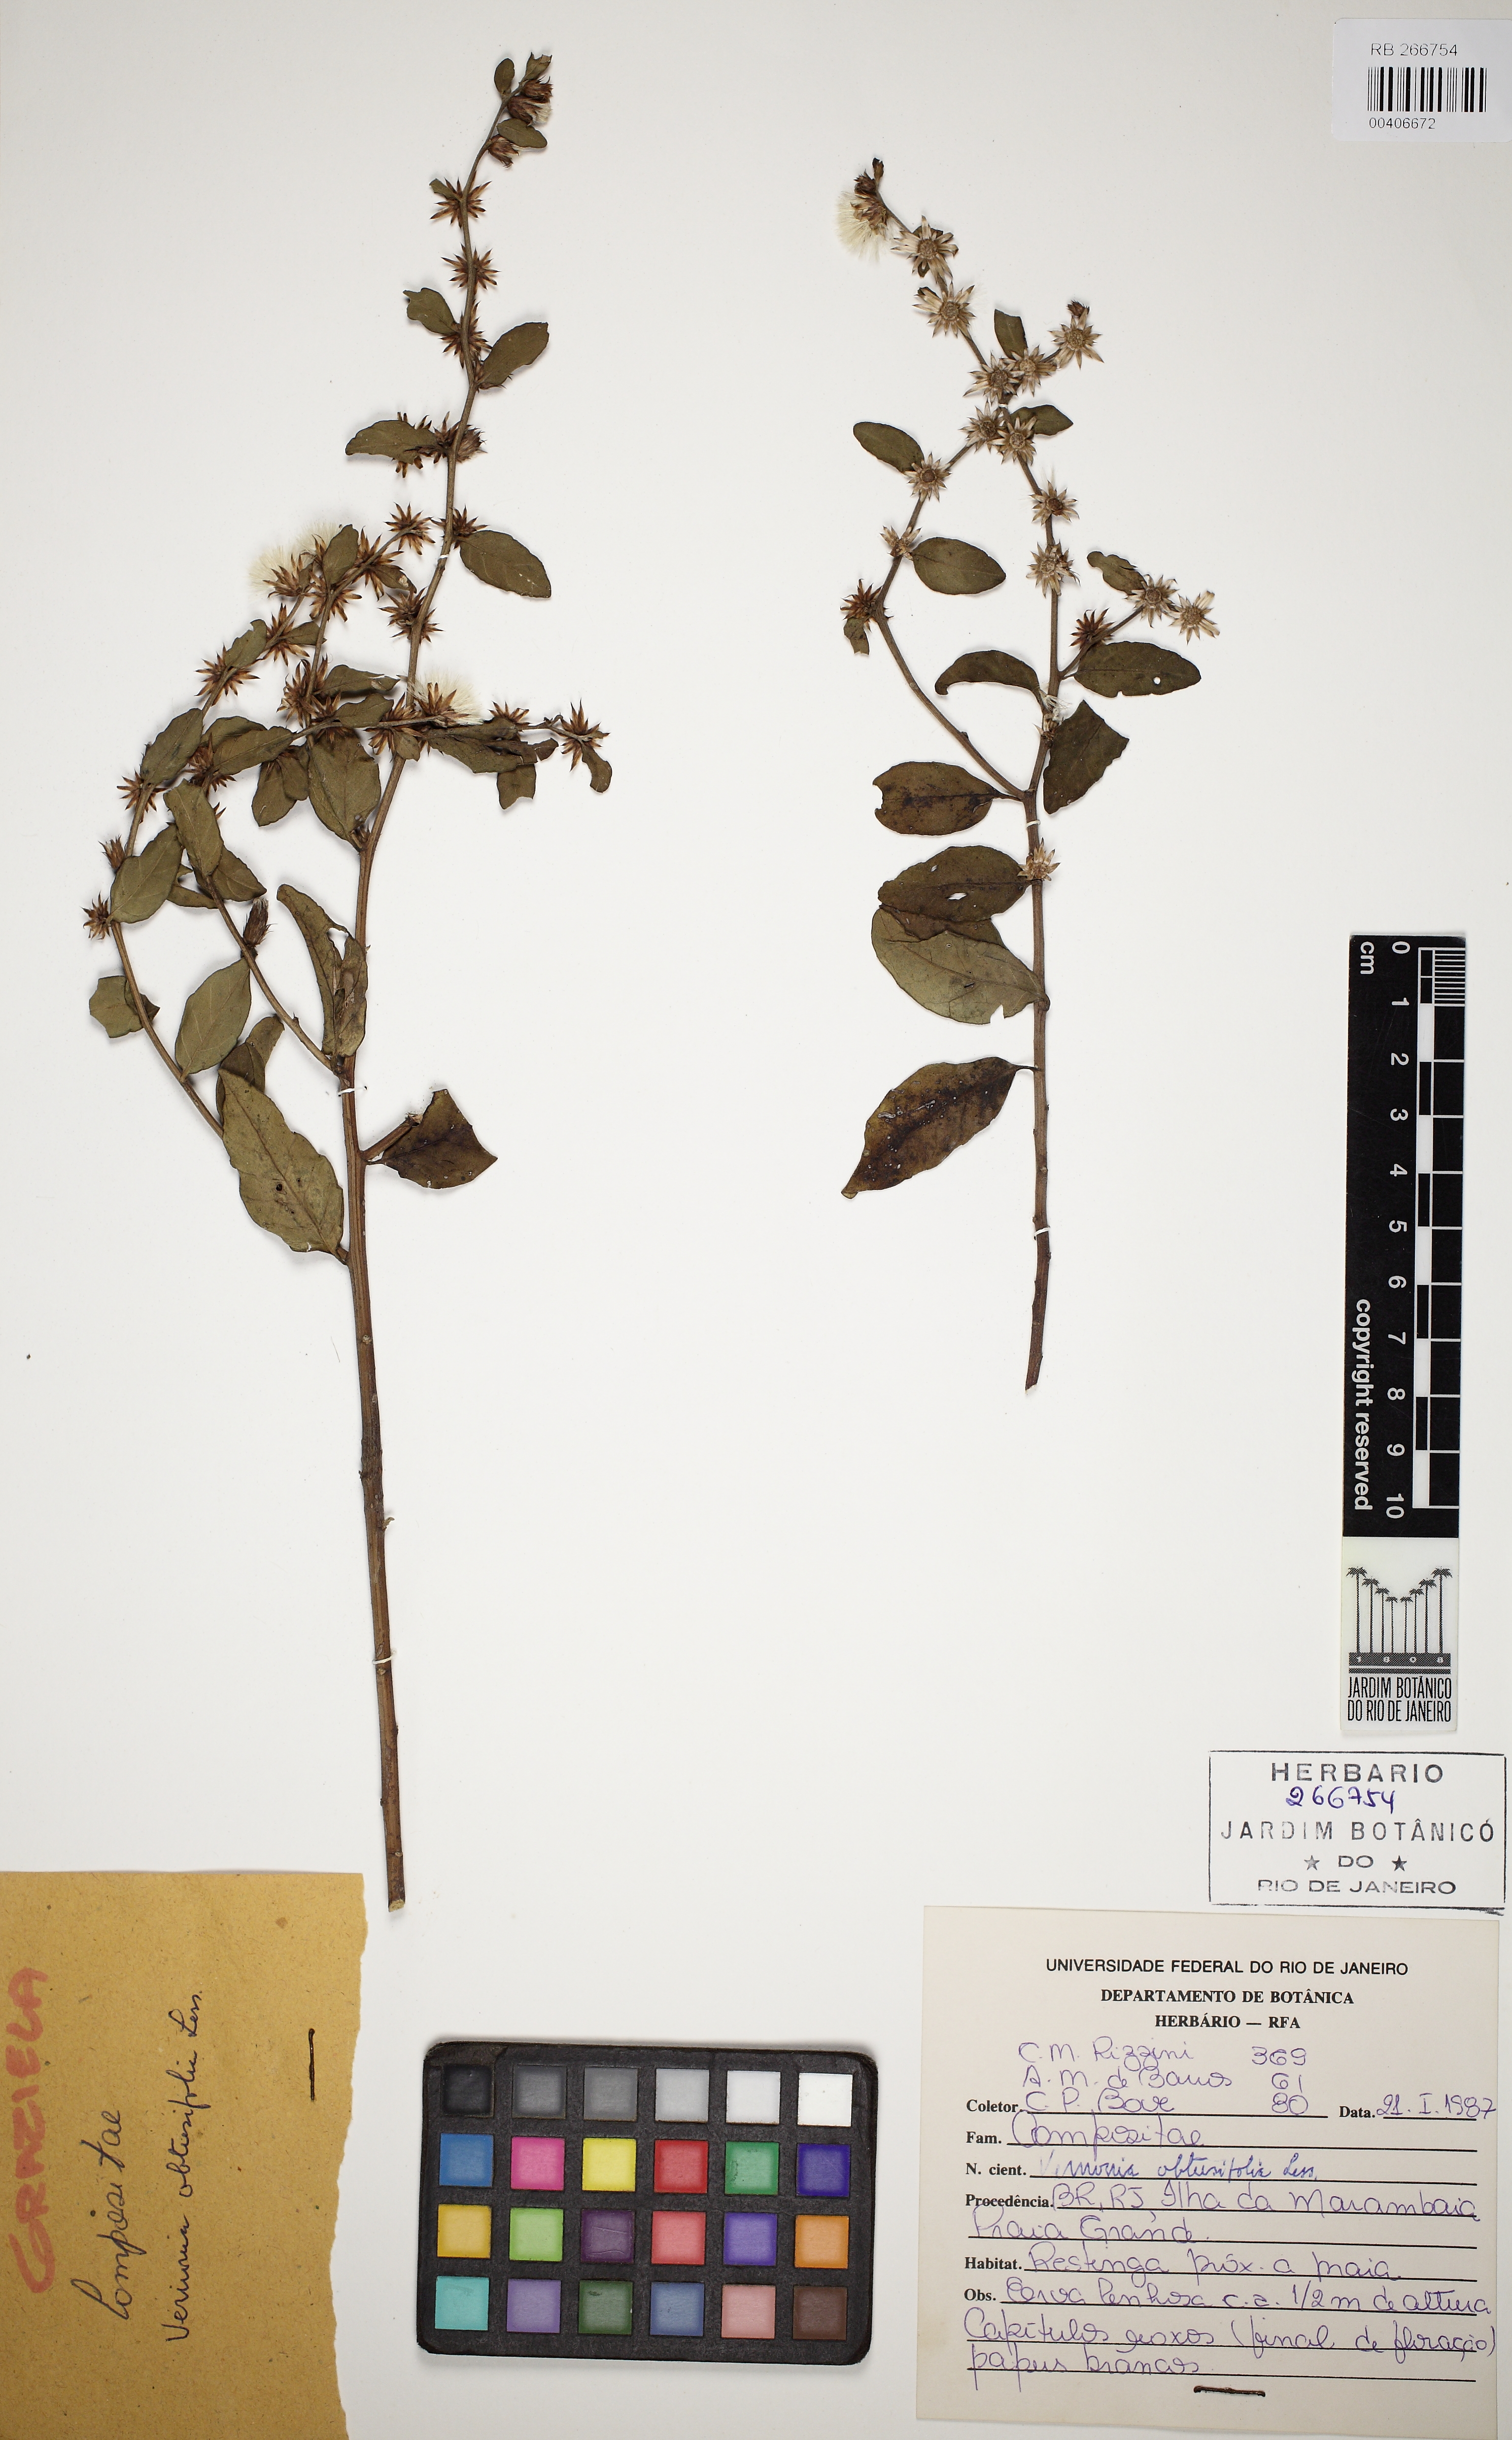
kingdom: Plantae
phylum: Tracheophyta
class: Magnoliopsida
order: Asterales
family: Asteraceae
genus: Lepidaploa
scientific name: Lepidaploa obtusifolia
